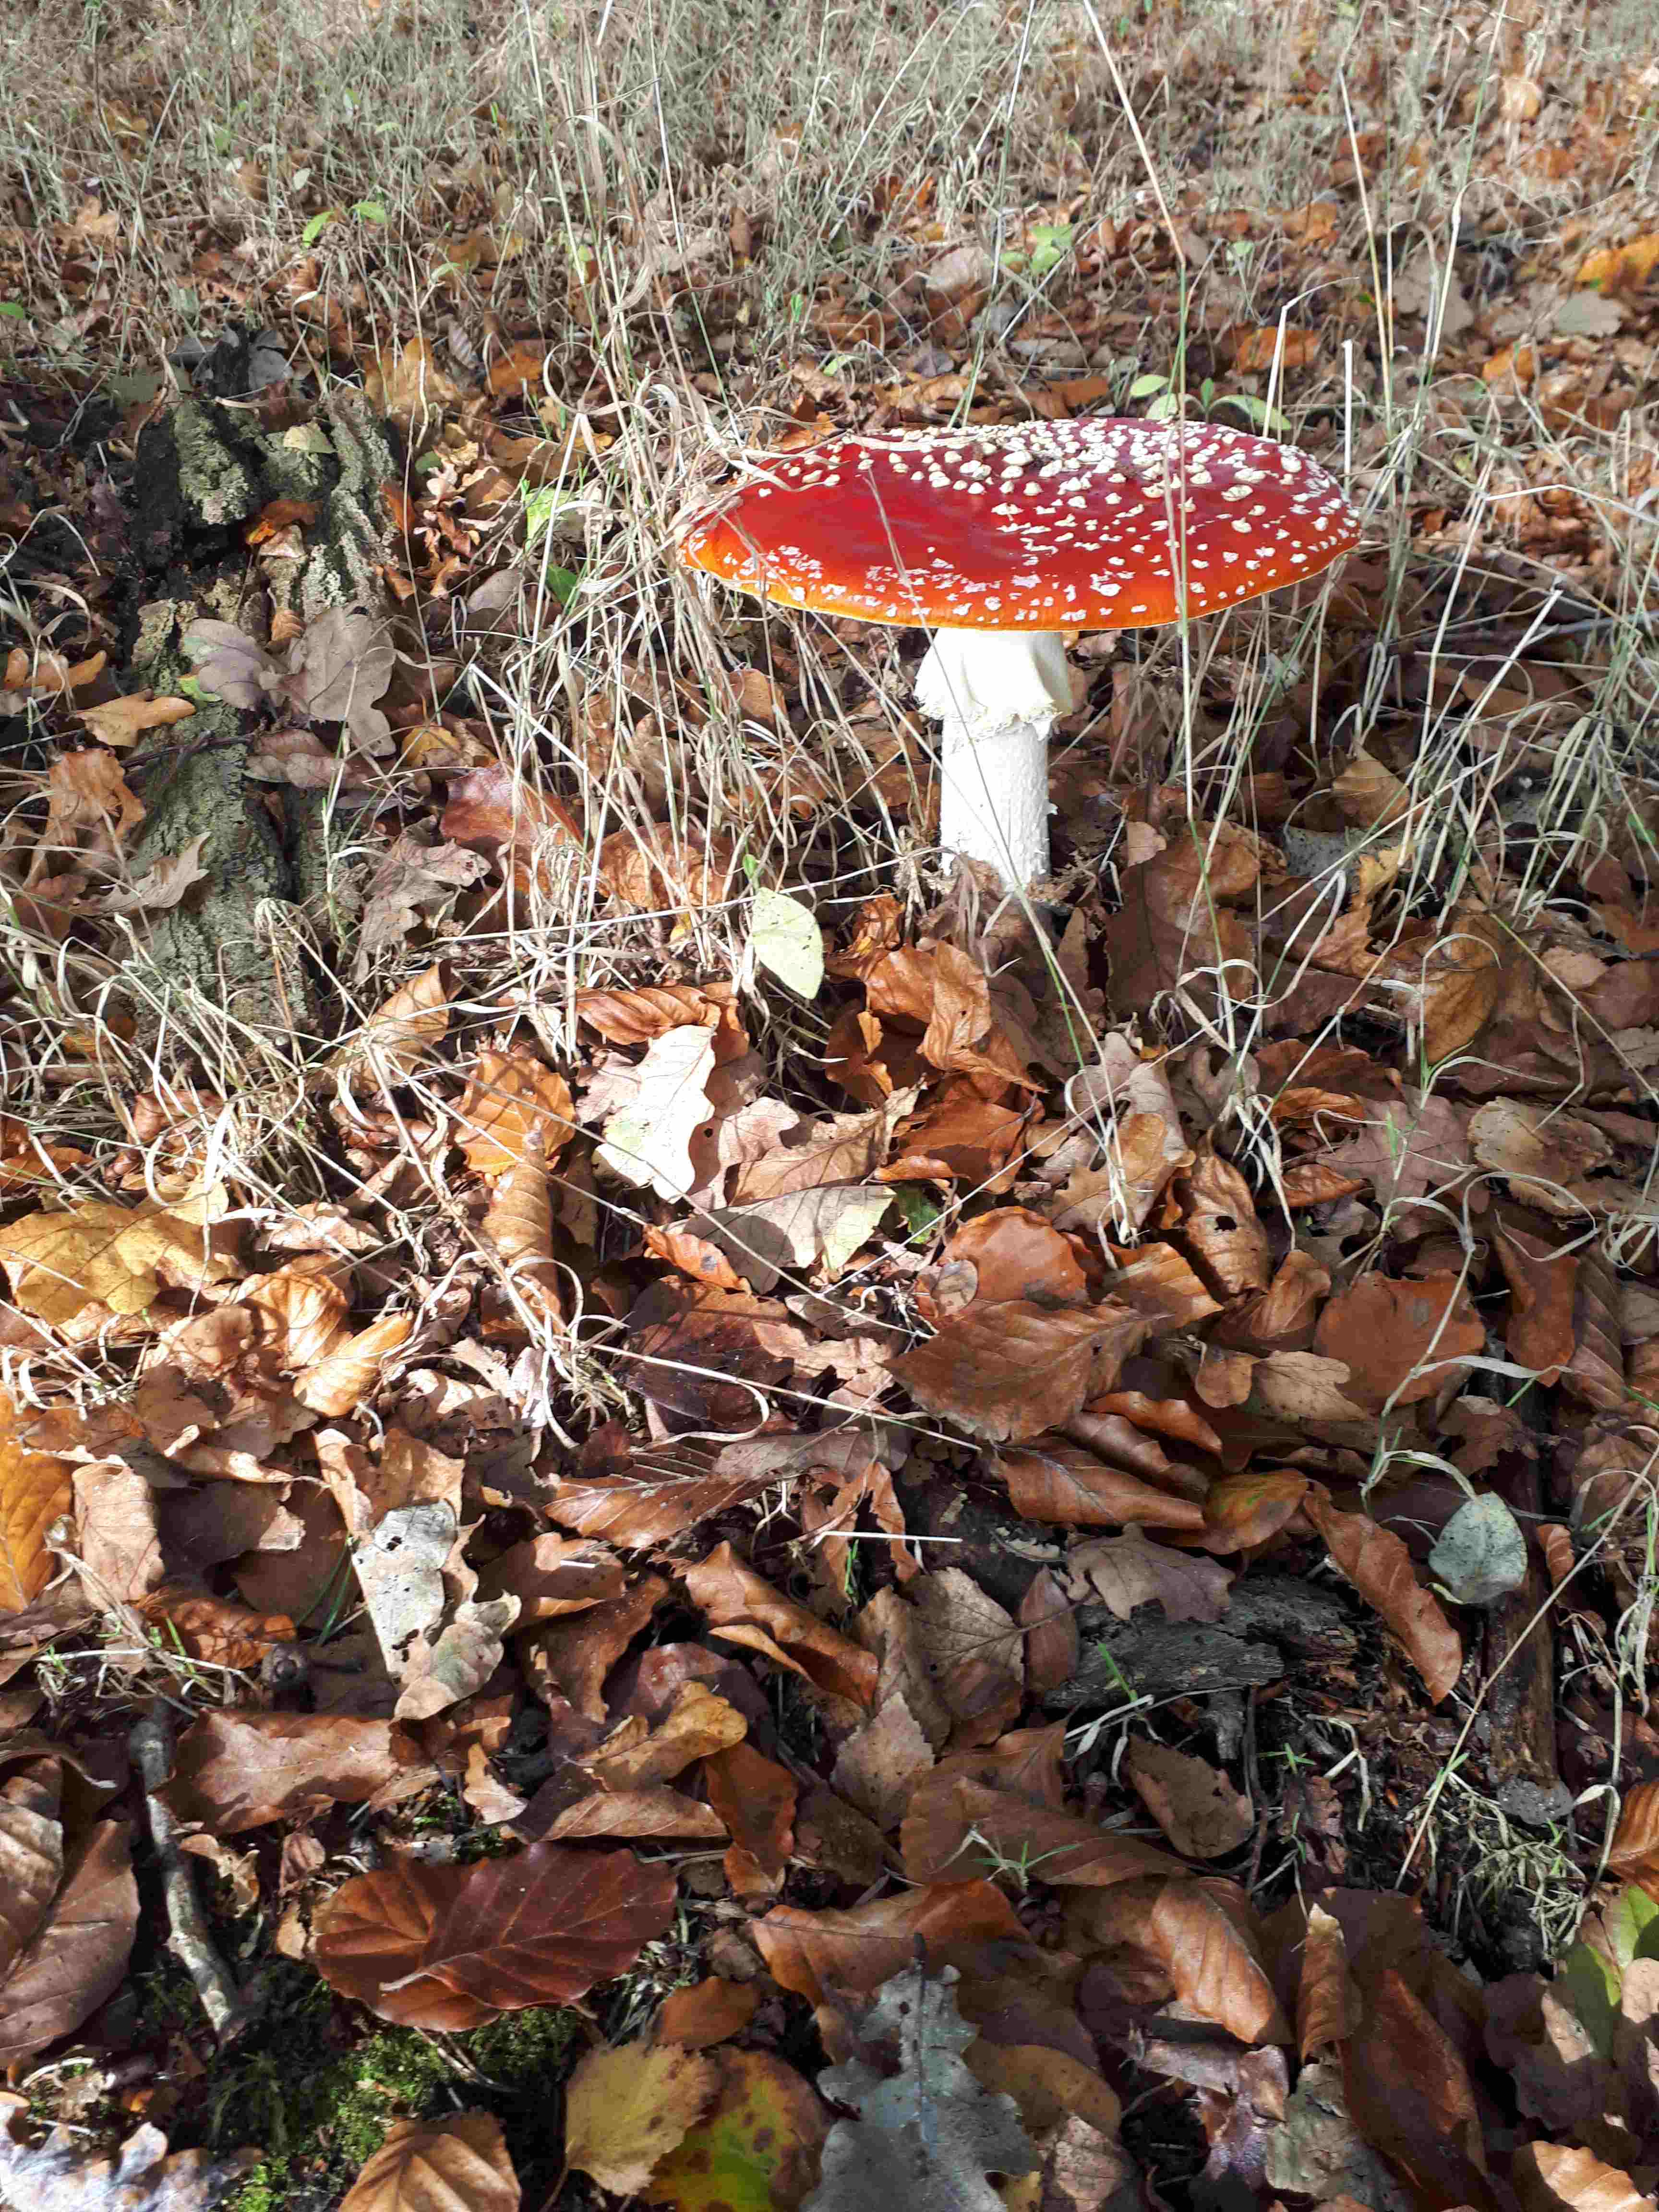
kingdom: Fungi
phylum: Basidiomycota
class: Agaricomycetes
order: Agaricales
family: Amanitaceae
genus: Amanita
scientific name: Amanita muscaria
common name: rød fluesvamp
